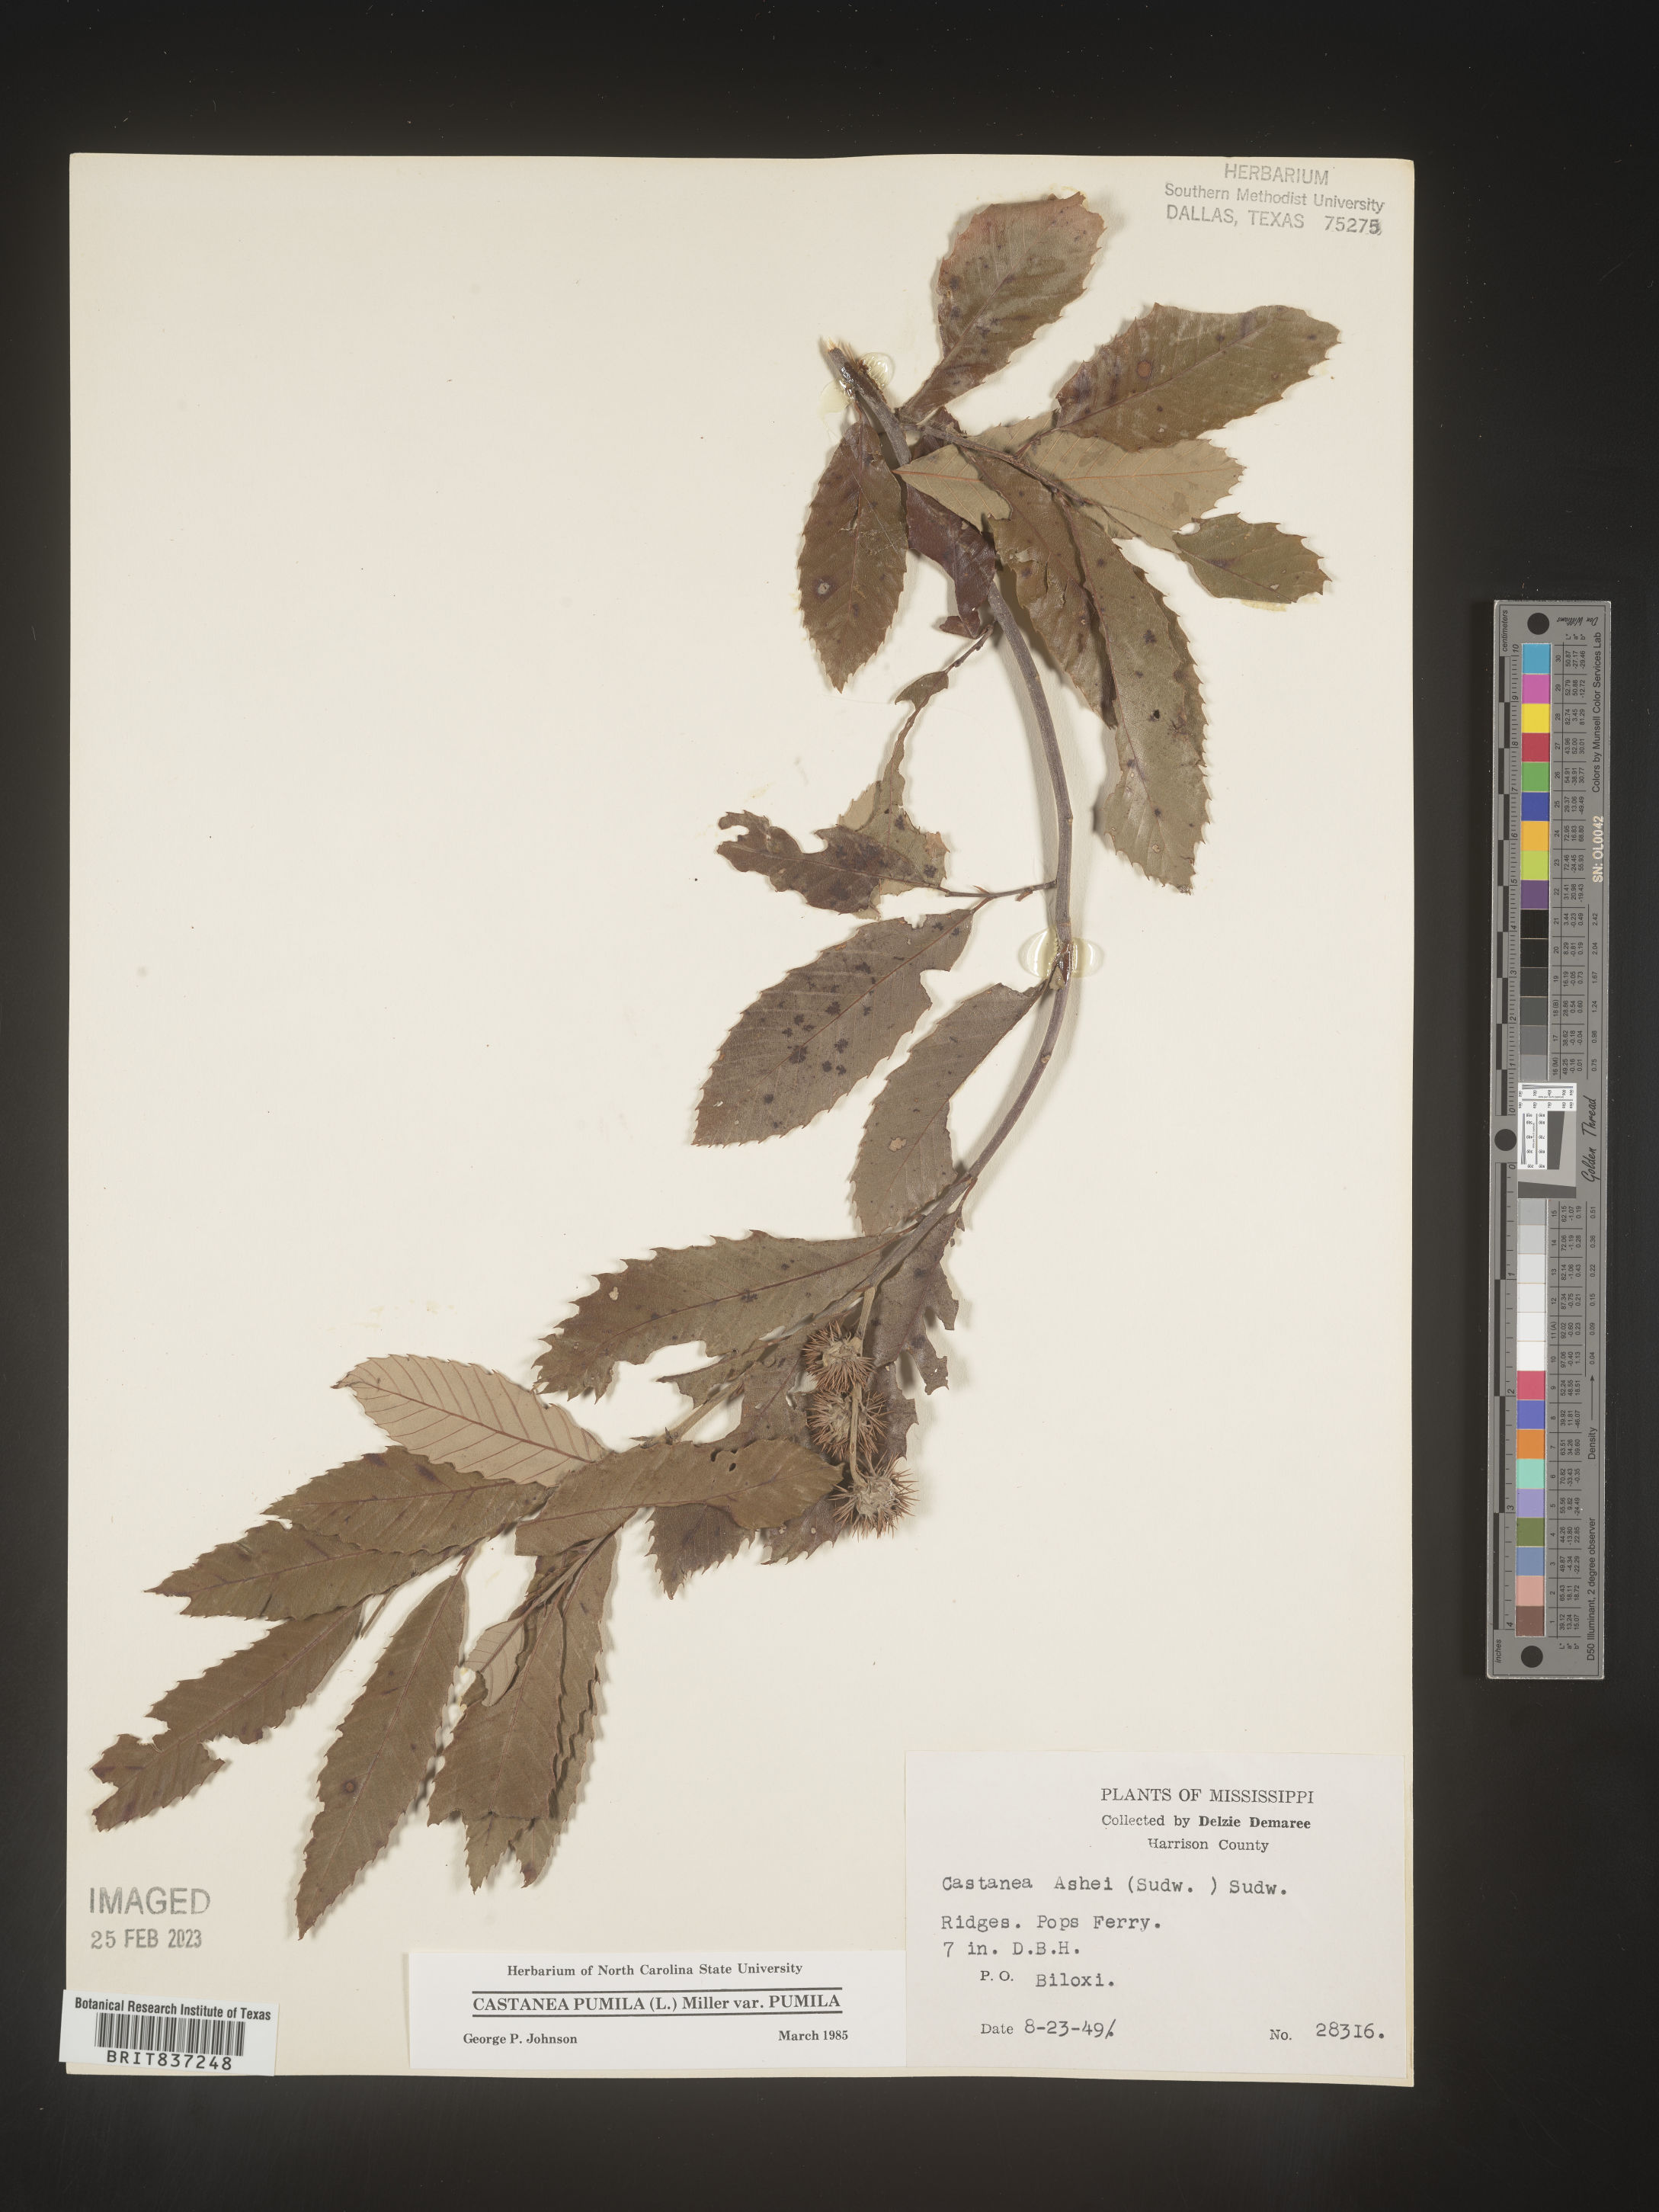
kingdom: Plantae
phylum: Tracheophyta
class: Magnoliopsida
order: Fagales
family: Fagaceae
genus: Castanea
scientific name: Castanea pumila
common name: Chinkapin
